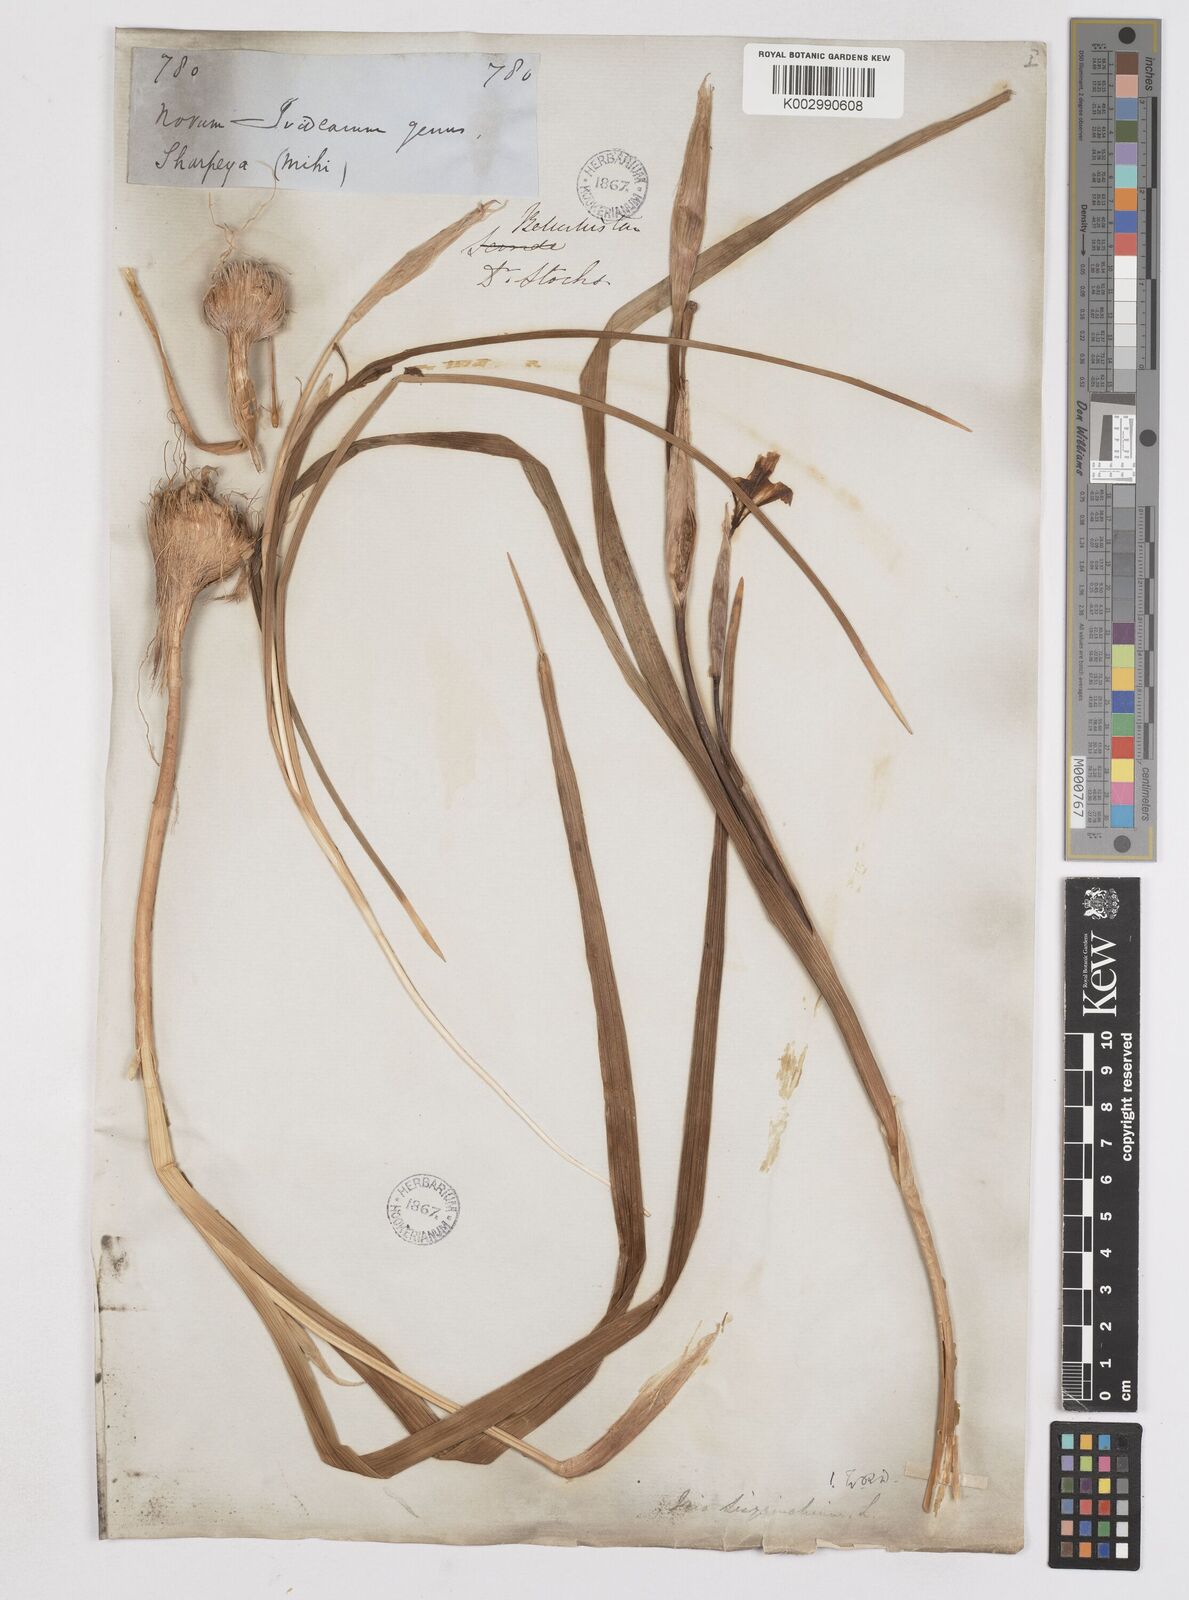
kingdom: Plantae
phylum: Tracheophyta
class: Liliopsida
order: Asparagales
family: Iridaceae
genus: Moraea
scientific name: Moraea sisyrinchium
